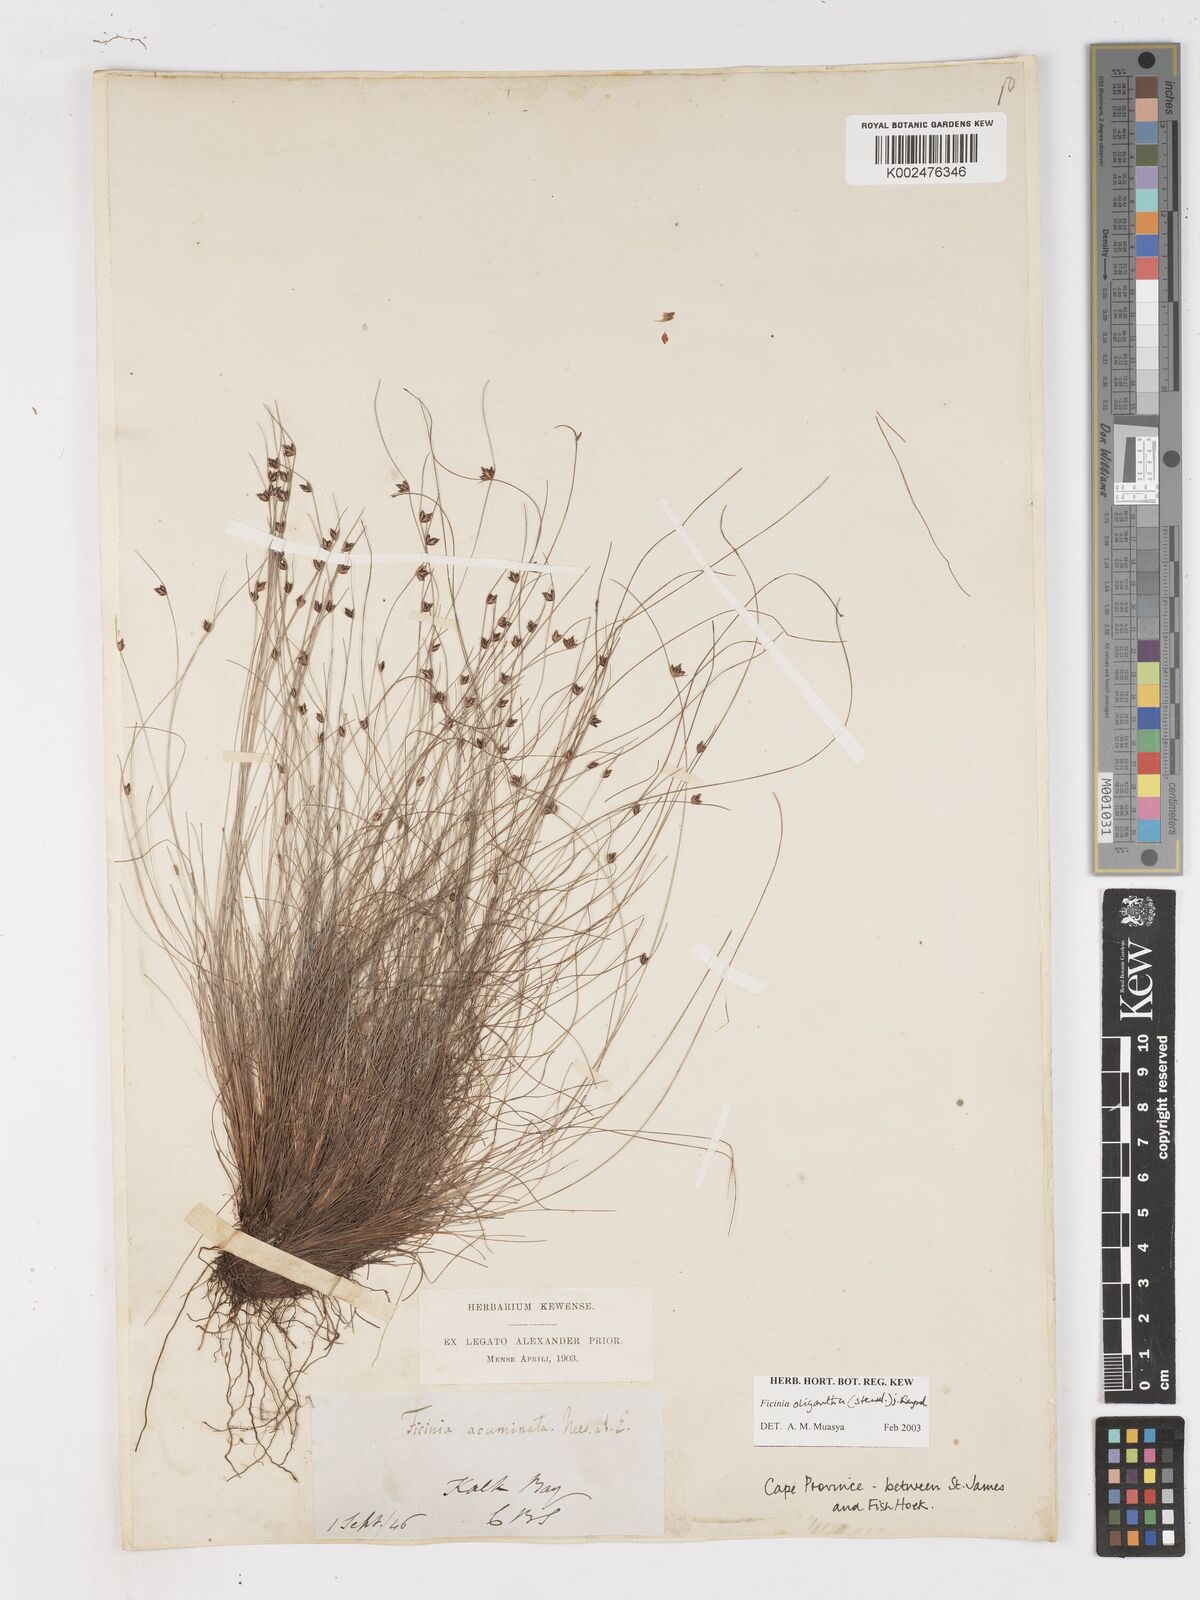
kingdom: Plantae
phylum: Tracheophyta
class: Liliopsida
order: Poales
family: Cyperaceae
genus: Ficinia
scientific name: Ficinia oligantha
